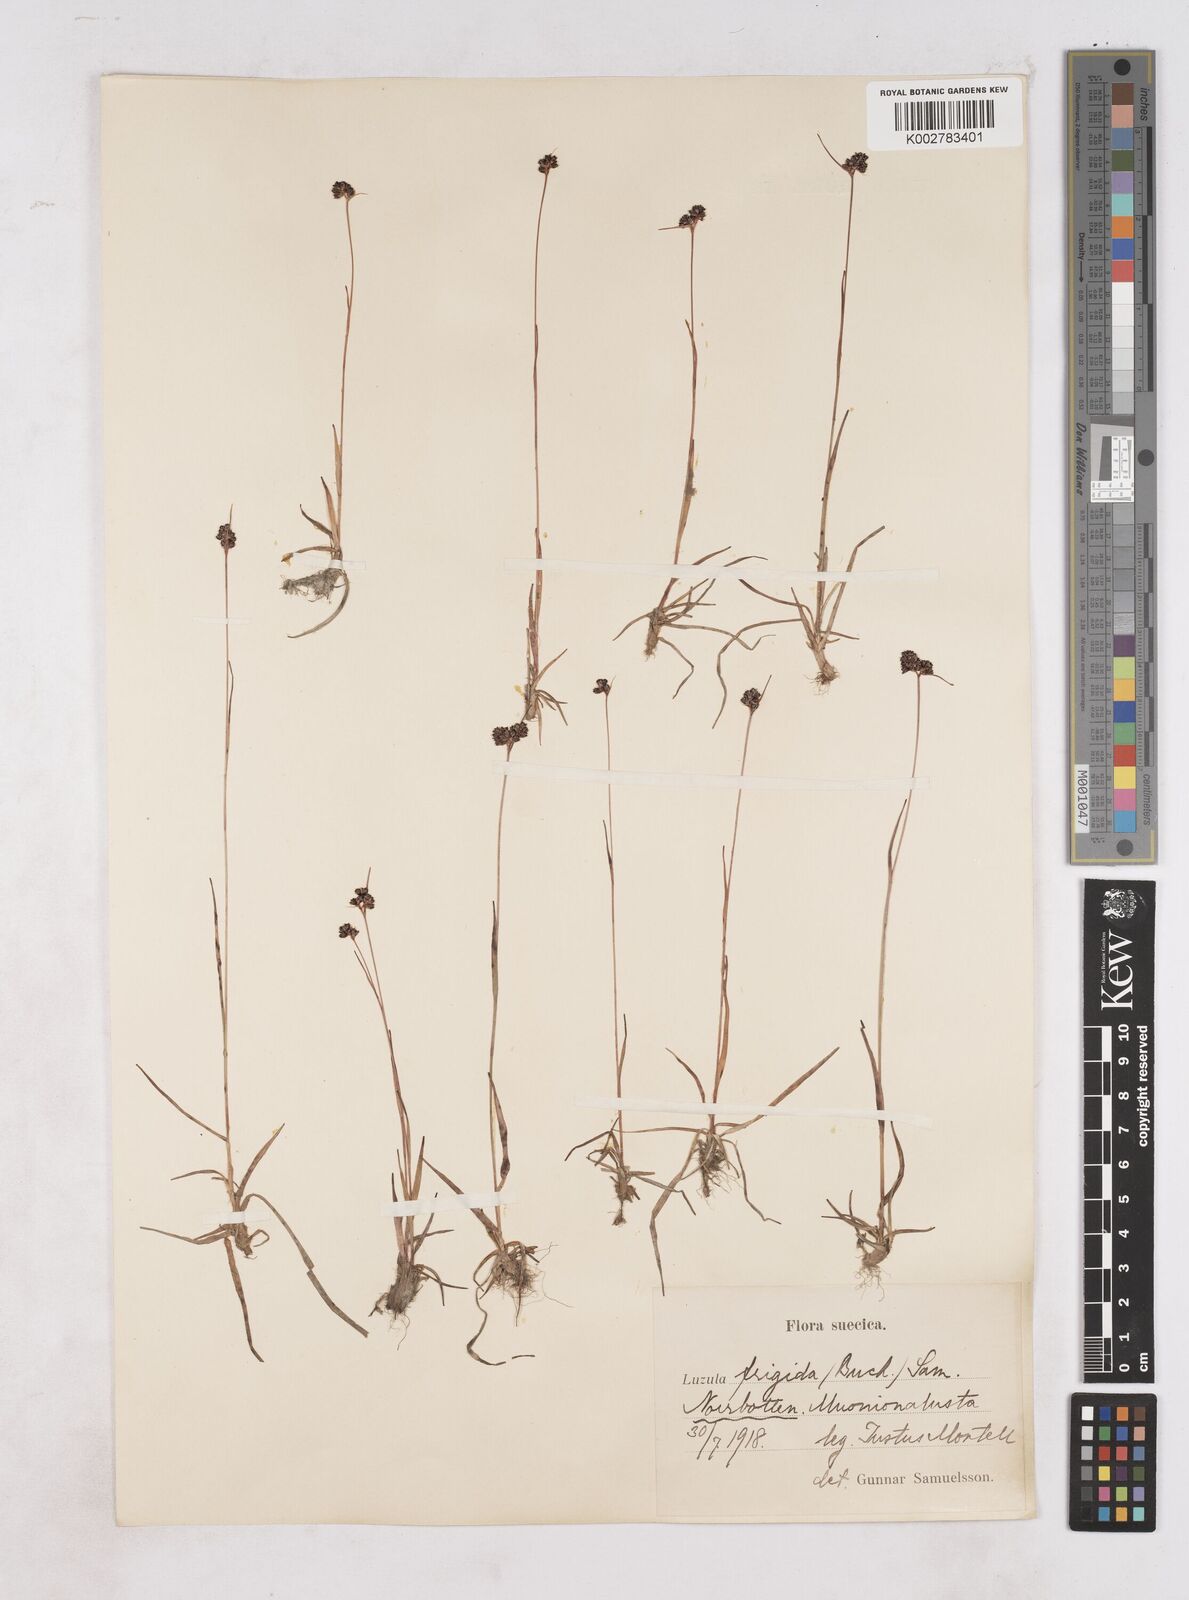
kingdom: Plantae
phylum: Tracheophyta
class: Liliopsida
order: Poales
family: Juncaceae
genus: Luzula
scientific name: Luzula multiflora
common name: Heath wood-rush
